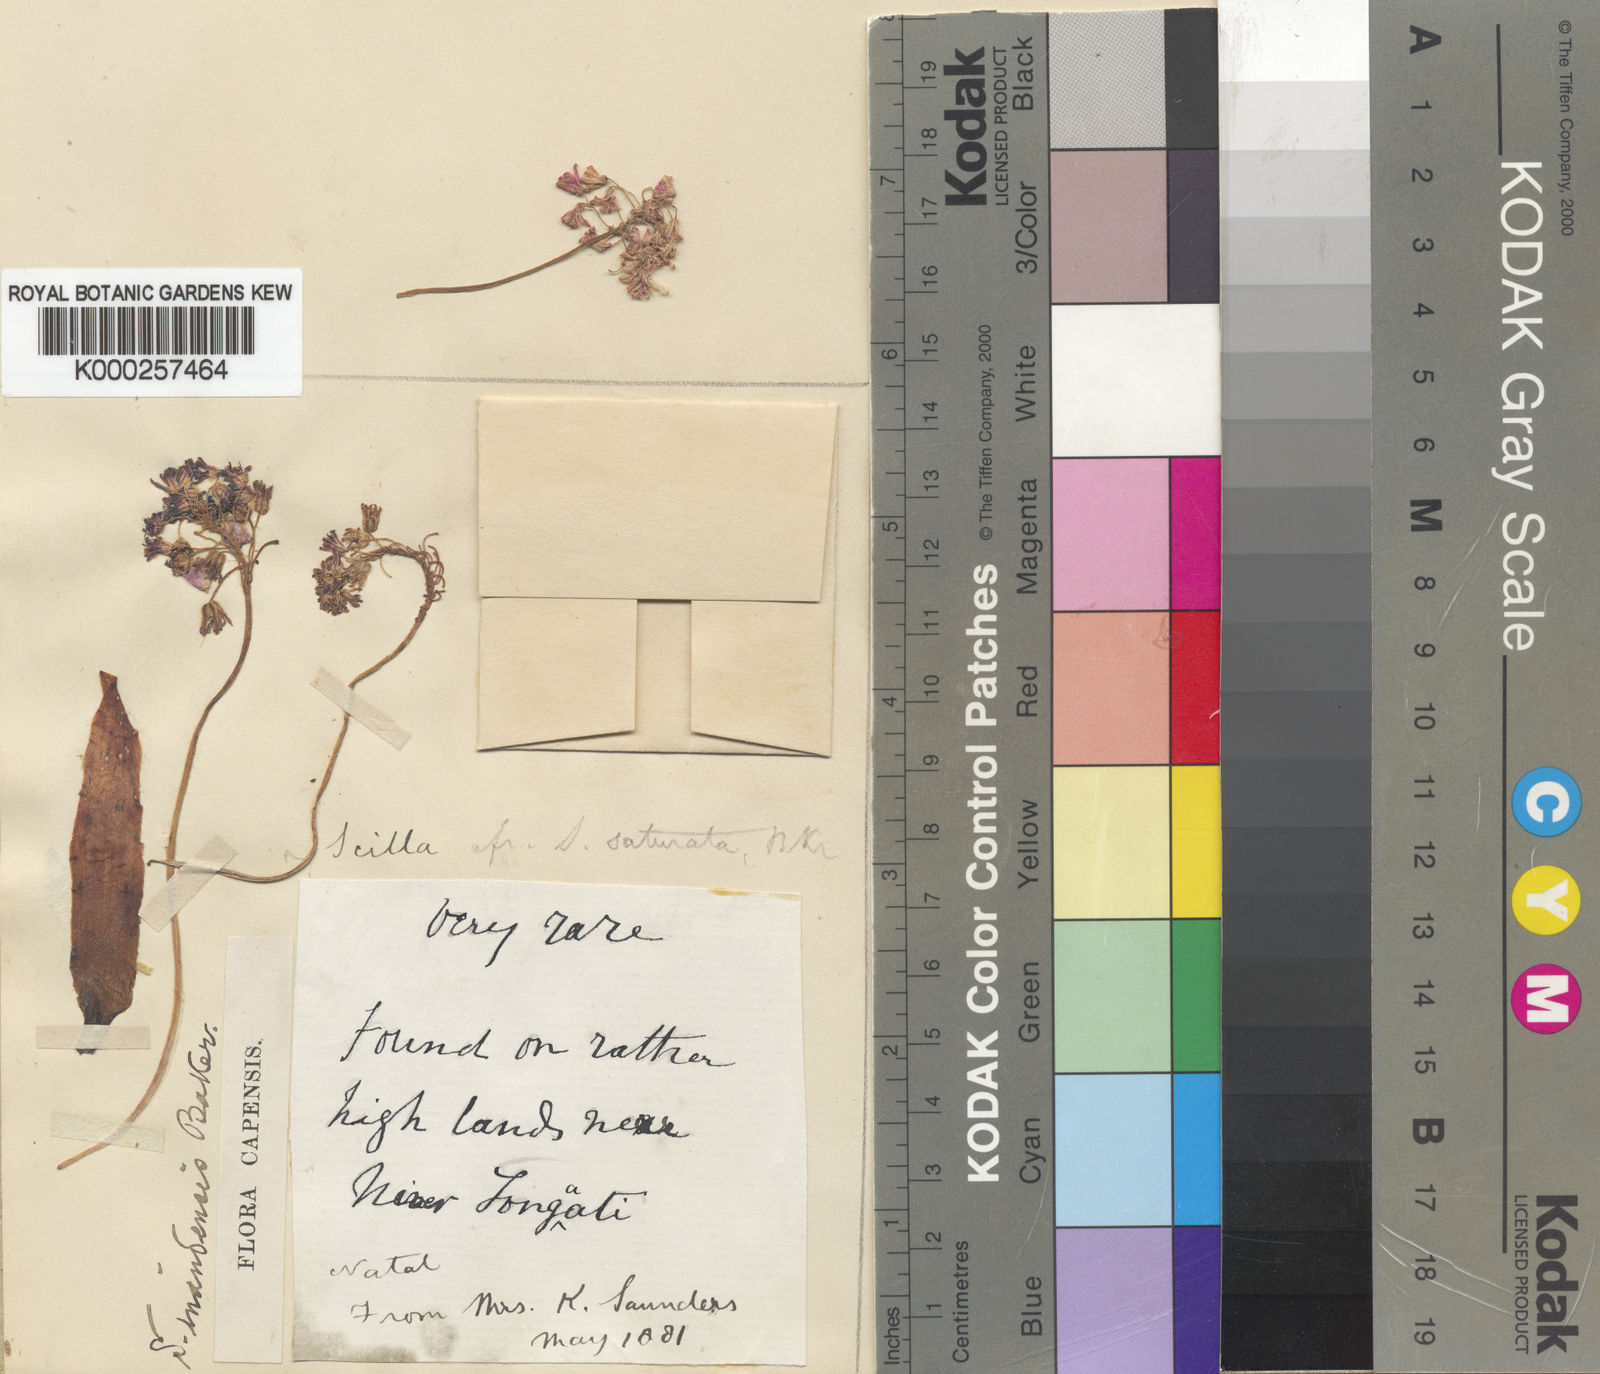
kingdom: Plantae
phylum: Tracheophyta
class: Liliopsida
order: Asparagales
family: Asparagaceae
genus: Ledebouria
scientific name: Ledebouria cooperi
